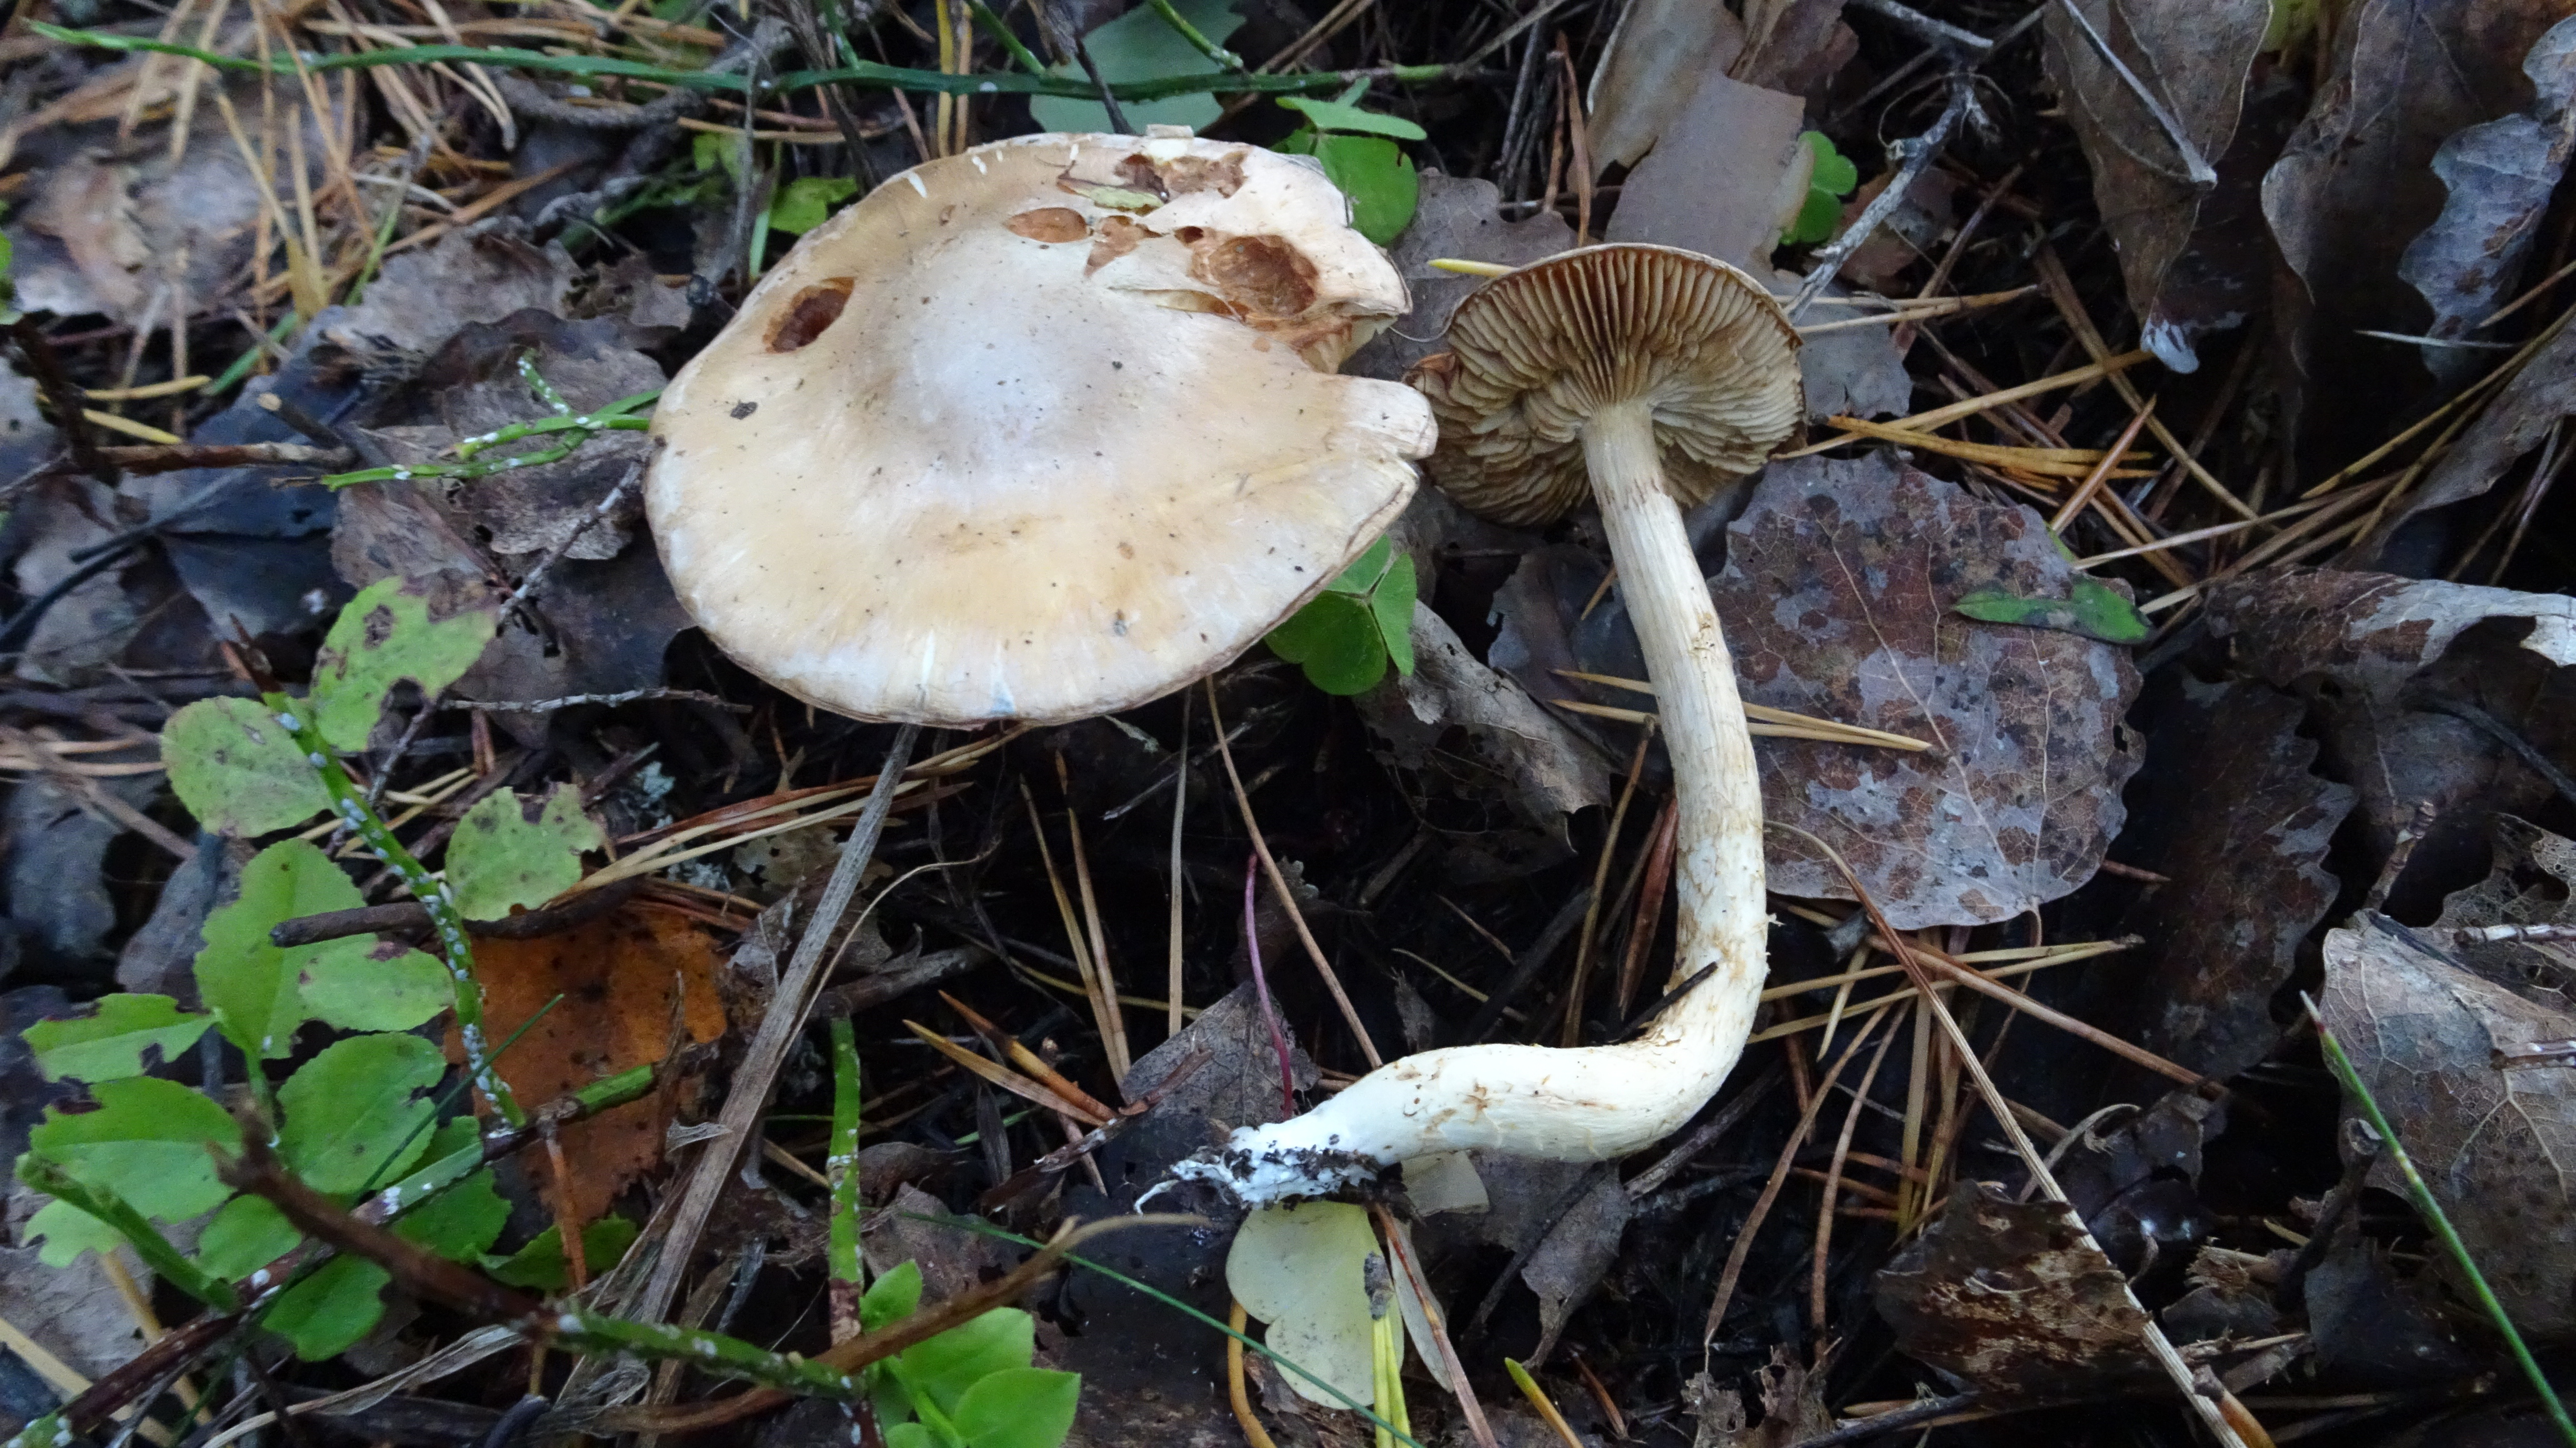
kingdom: Fungi
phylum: Basidiomycota
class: Agaricomycetes
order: Agaricales
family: Cortinariaceae
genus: Thaxterogaster
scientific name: Thaxterogaster turmalis
